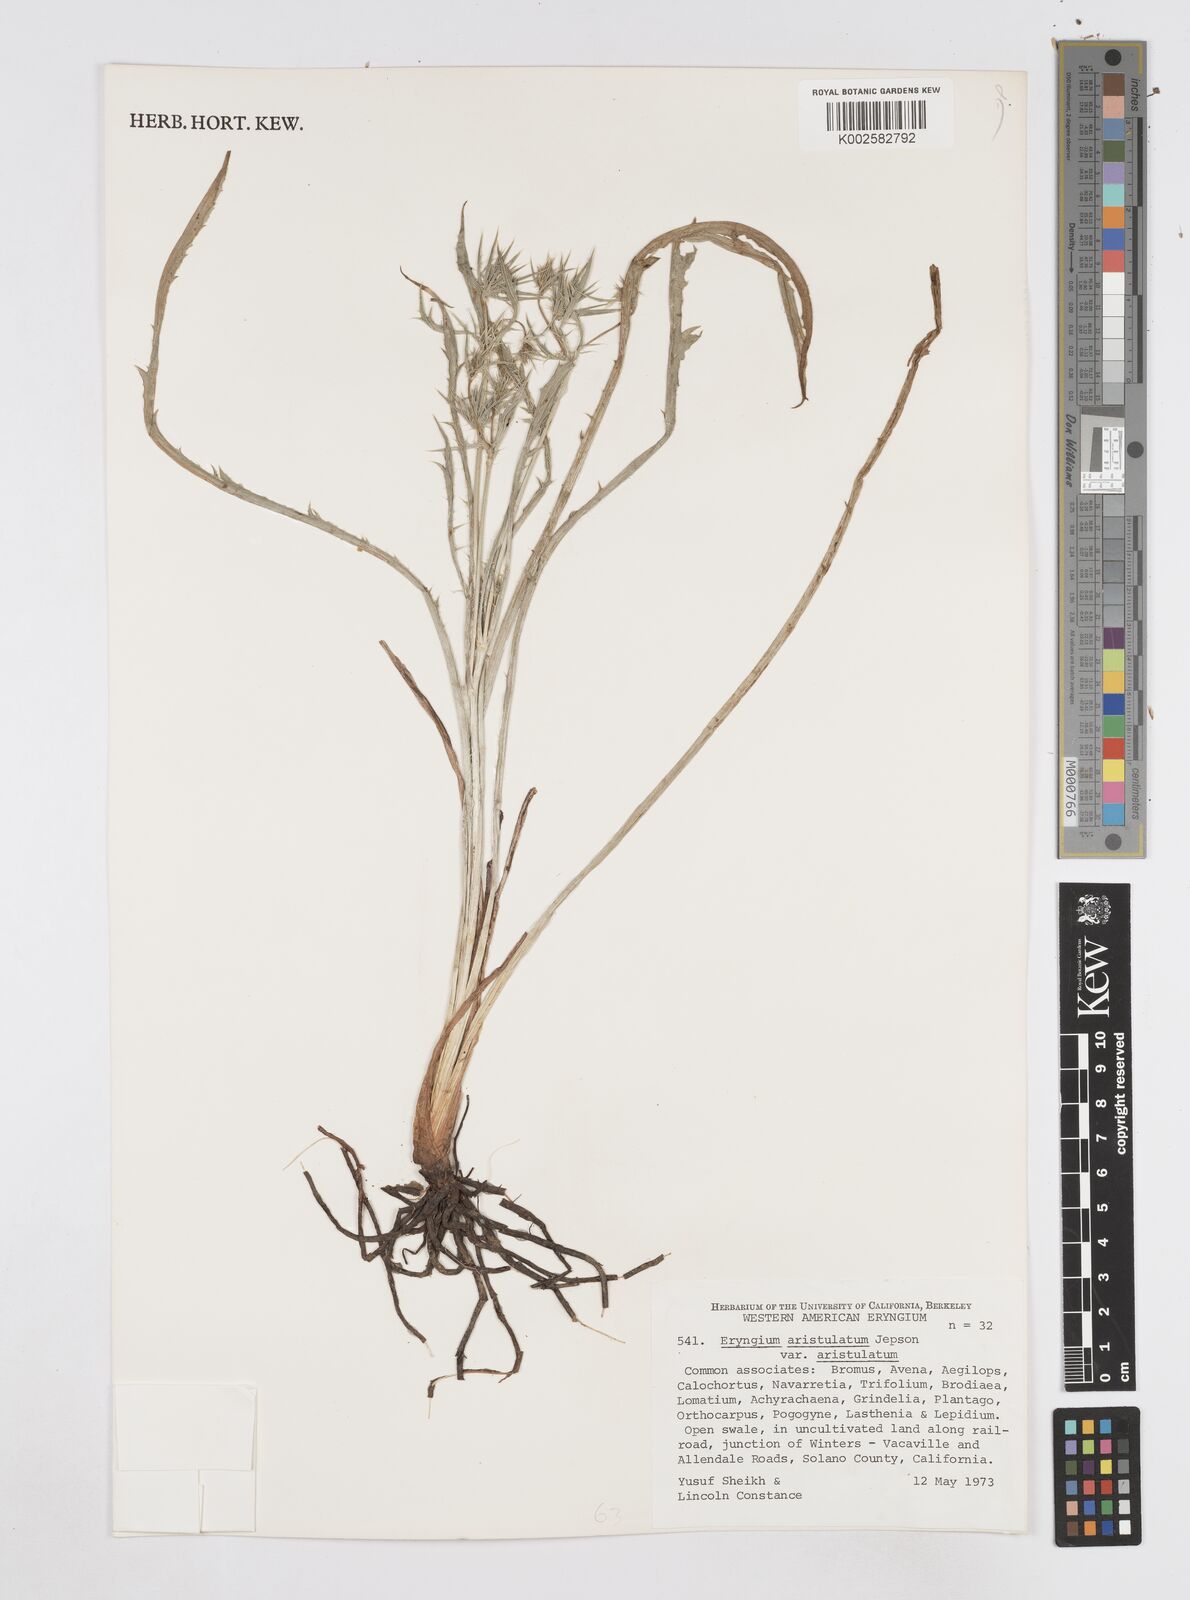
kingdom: Plantae
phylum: Tracheophyta
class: Magnoliopsida
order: Apiales
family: Apiaceae
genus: Eryngium
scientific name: Eryngium aristulatum
